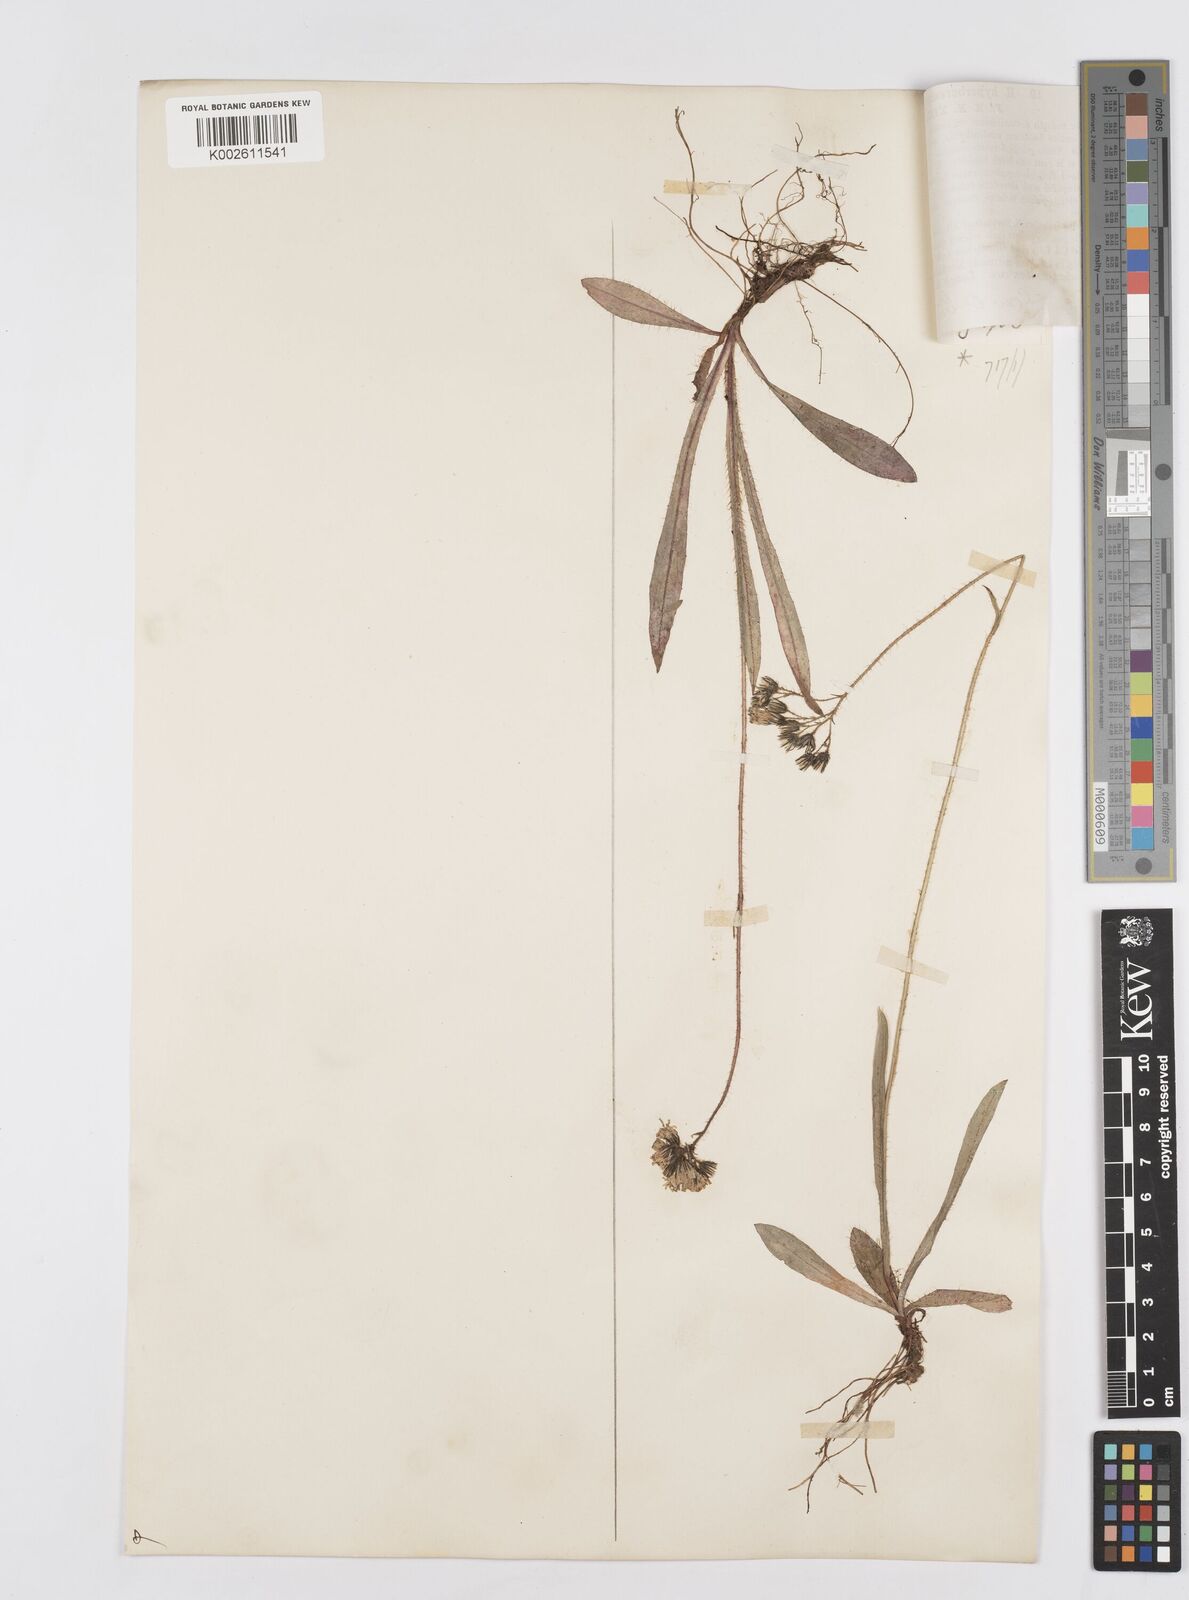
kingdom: Plantae
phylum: Tracheophyta
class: Magnoliopsida
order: Asterales
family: Asteraceae
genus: Pilosella
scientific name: Pilosella hyperborea
